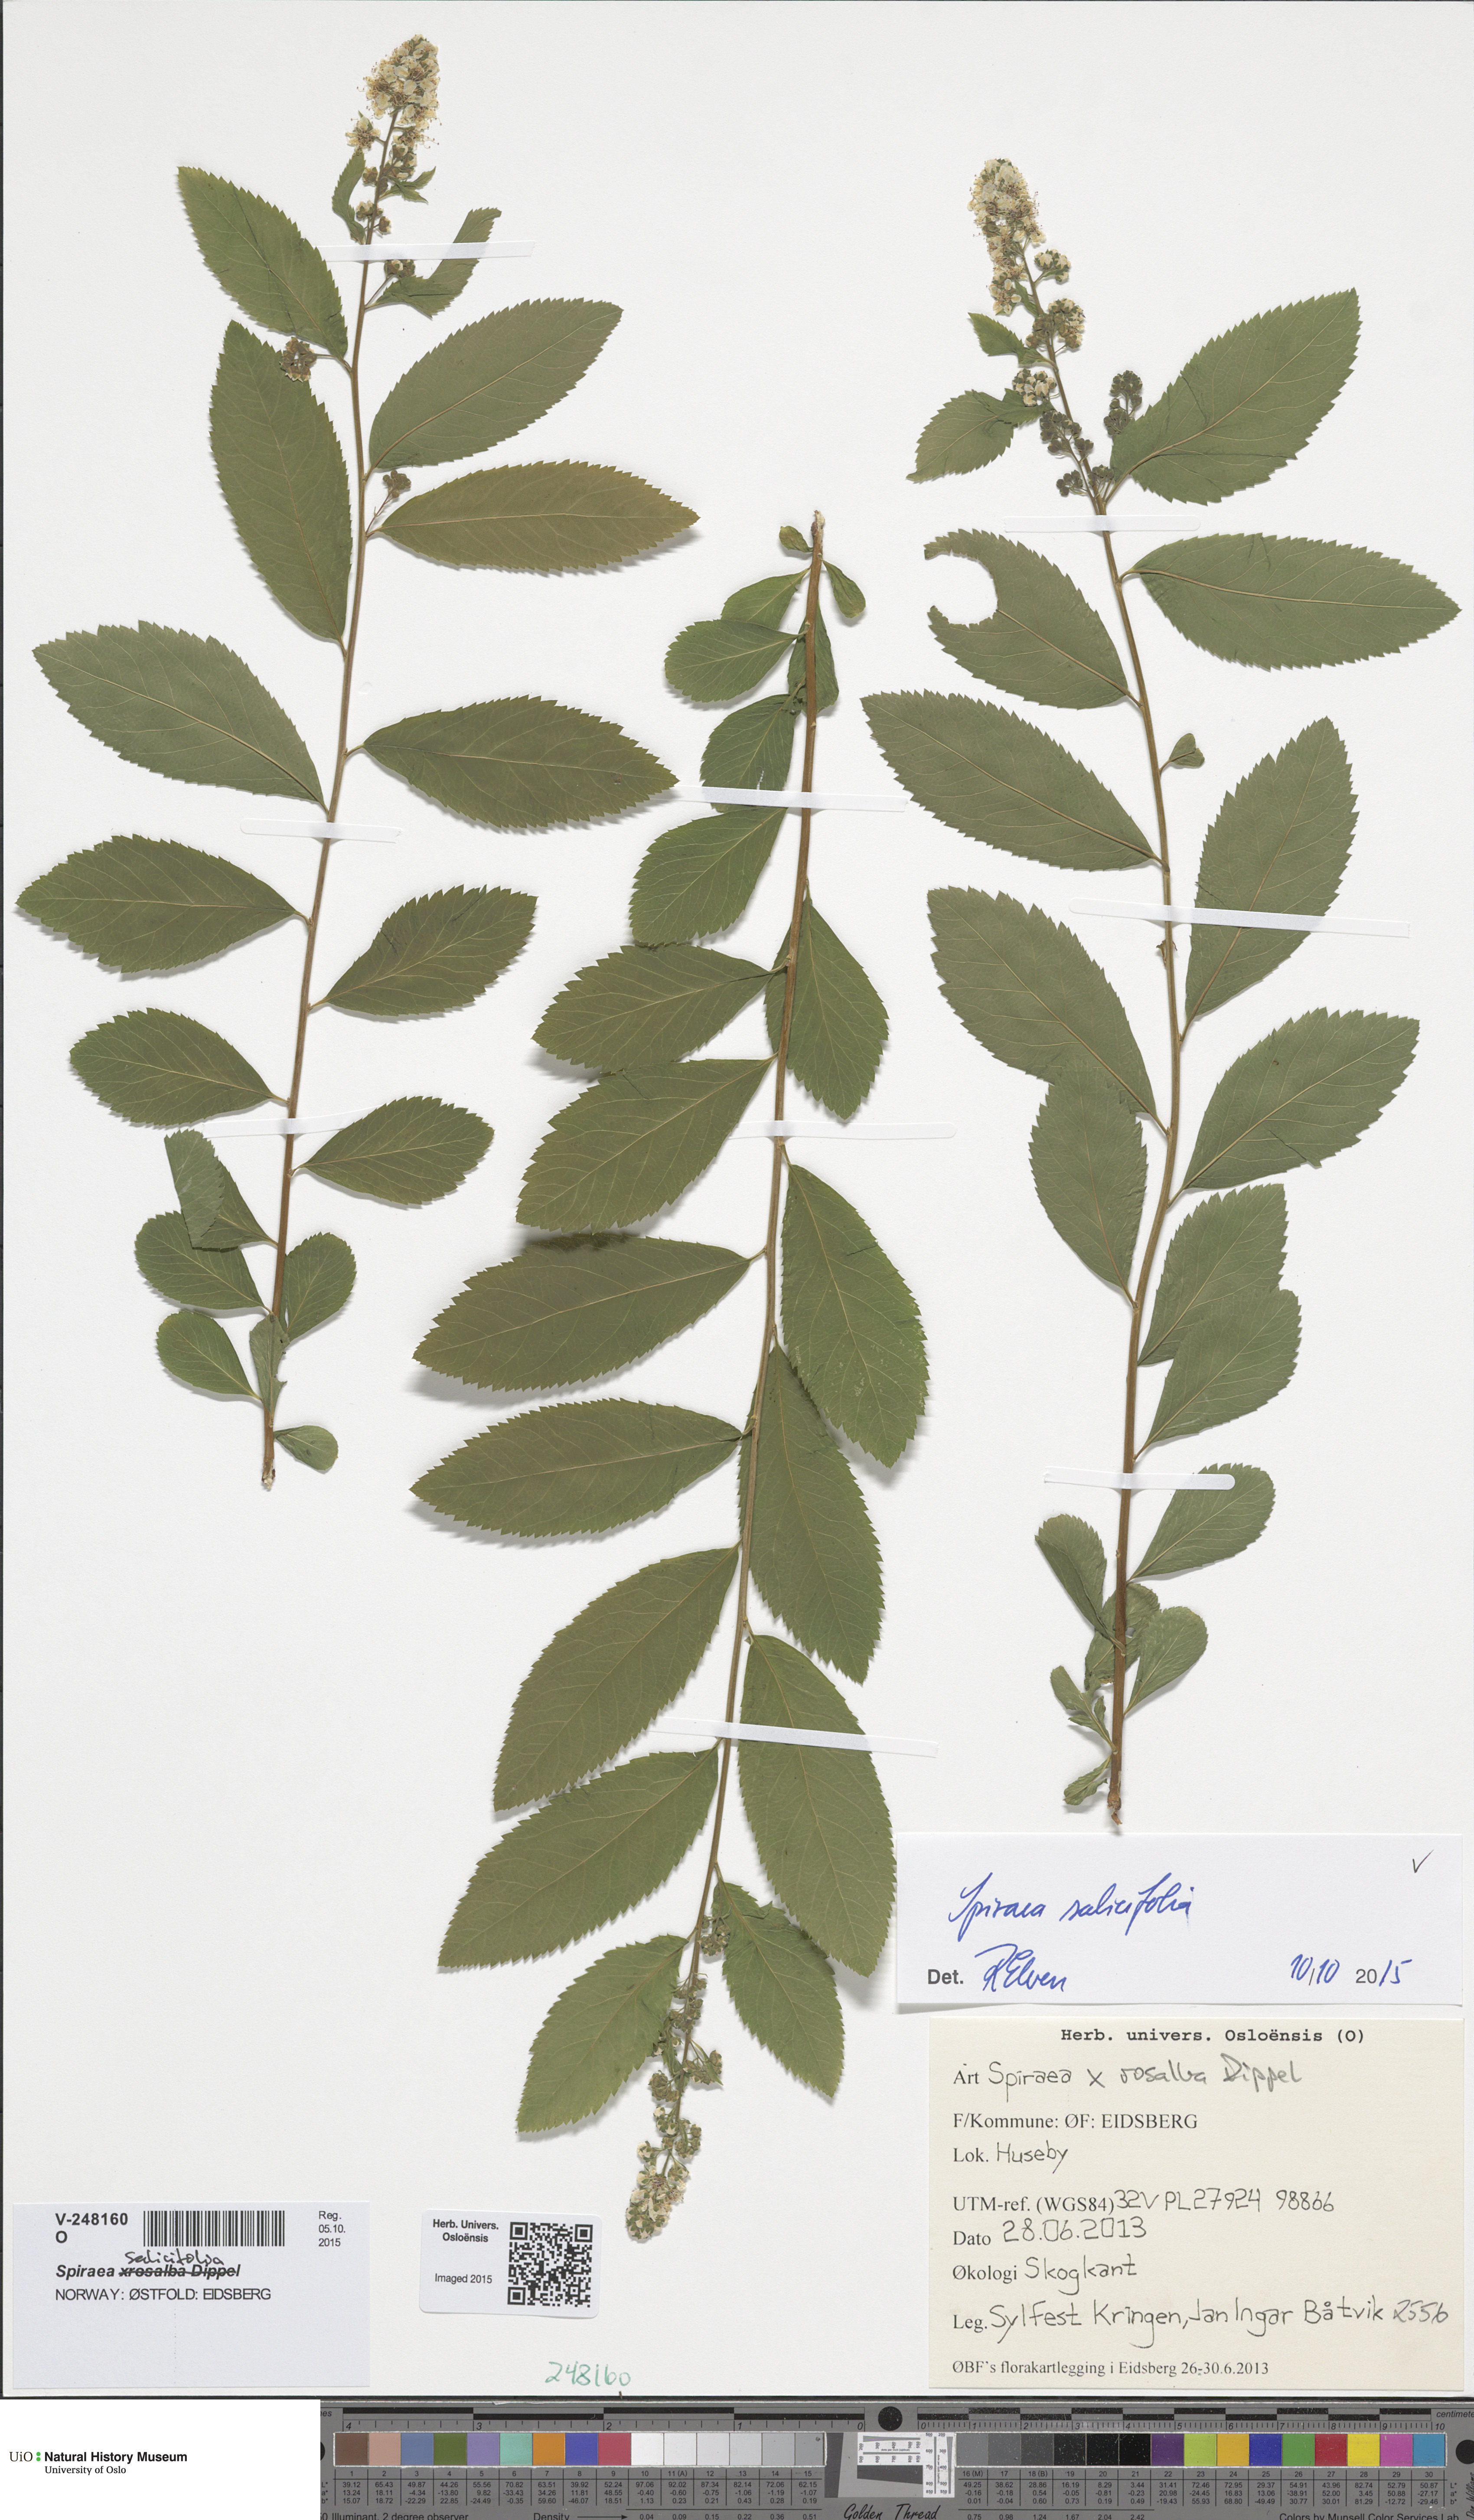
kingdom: Plantae
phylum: Tracheophyta
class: Magnoliopsida
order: Rosales
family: Rosaceae
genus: Spiraea
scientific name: Spiraea salicifolia
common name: Bridewort
